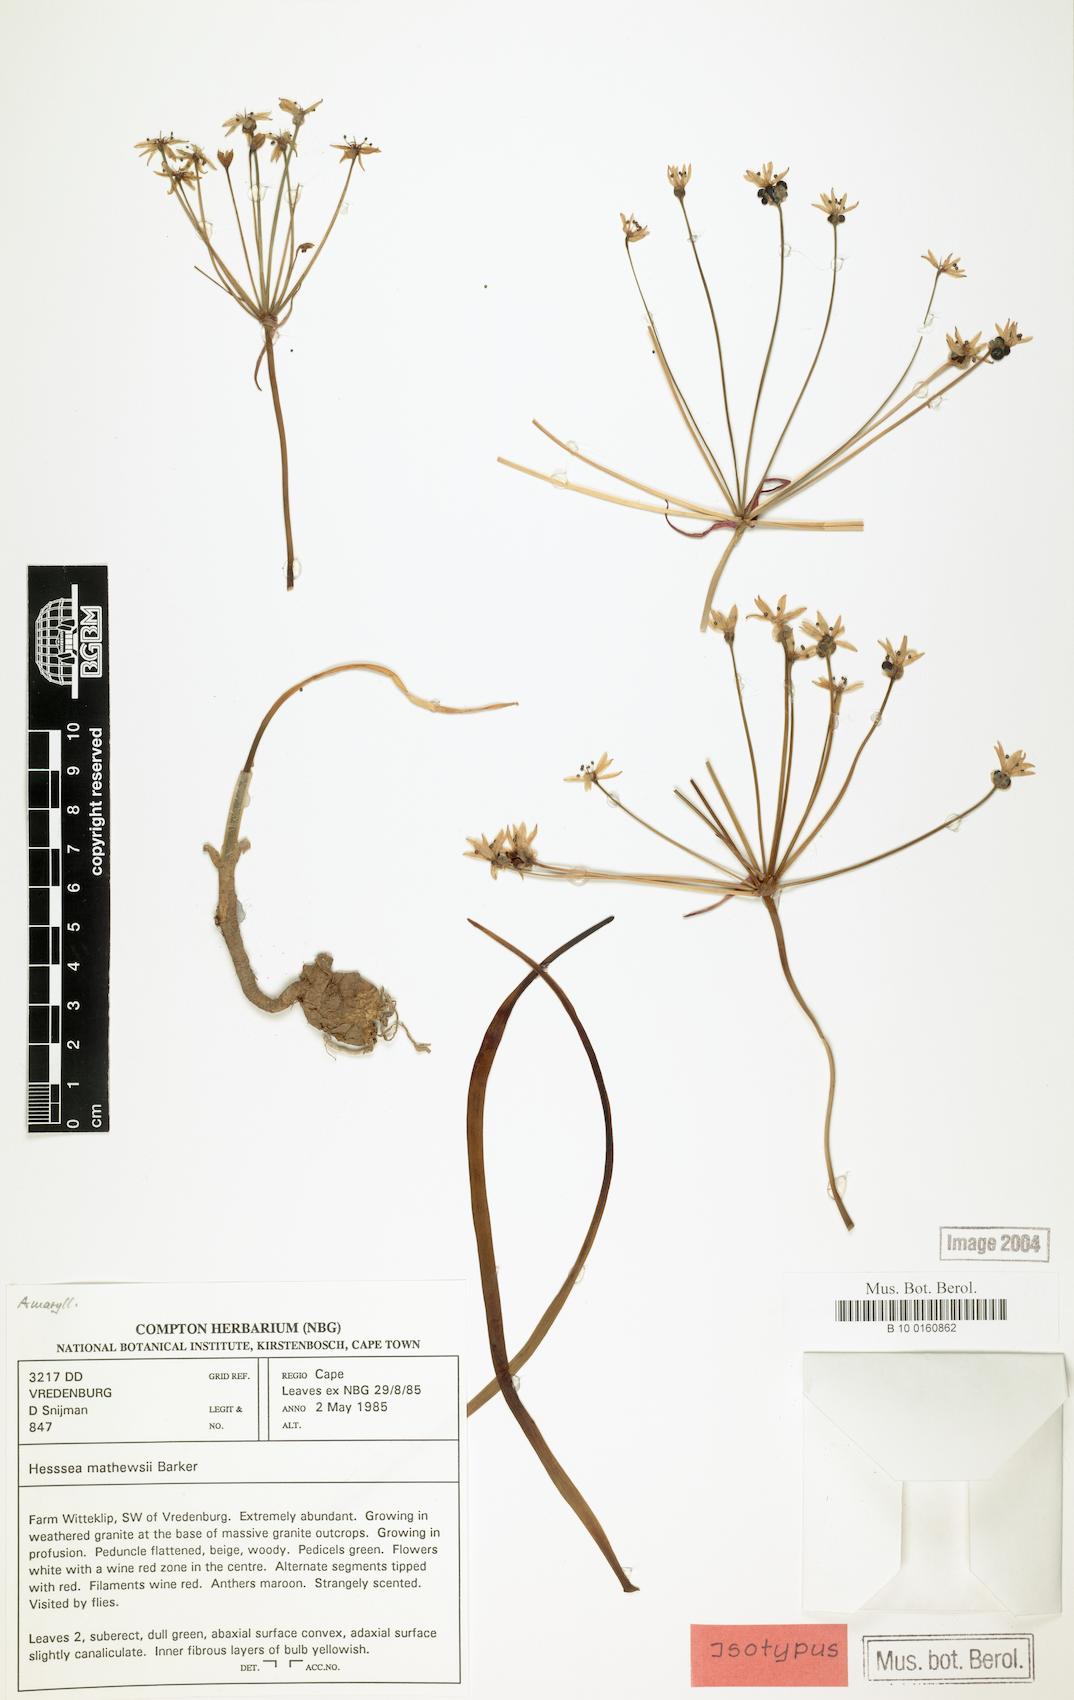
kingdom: Plantae
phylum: Tracheophyta
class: Liliopsida
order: Asparagales
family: Amaryllidaceae
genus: Hessea
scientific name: Hessea mathewsii
